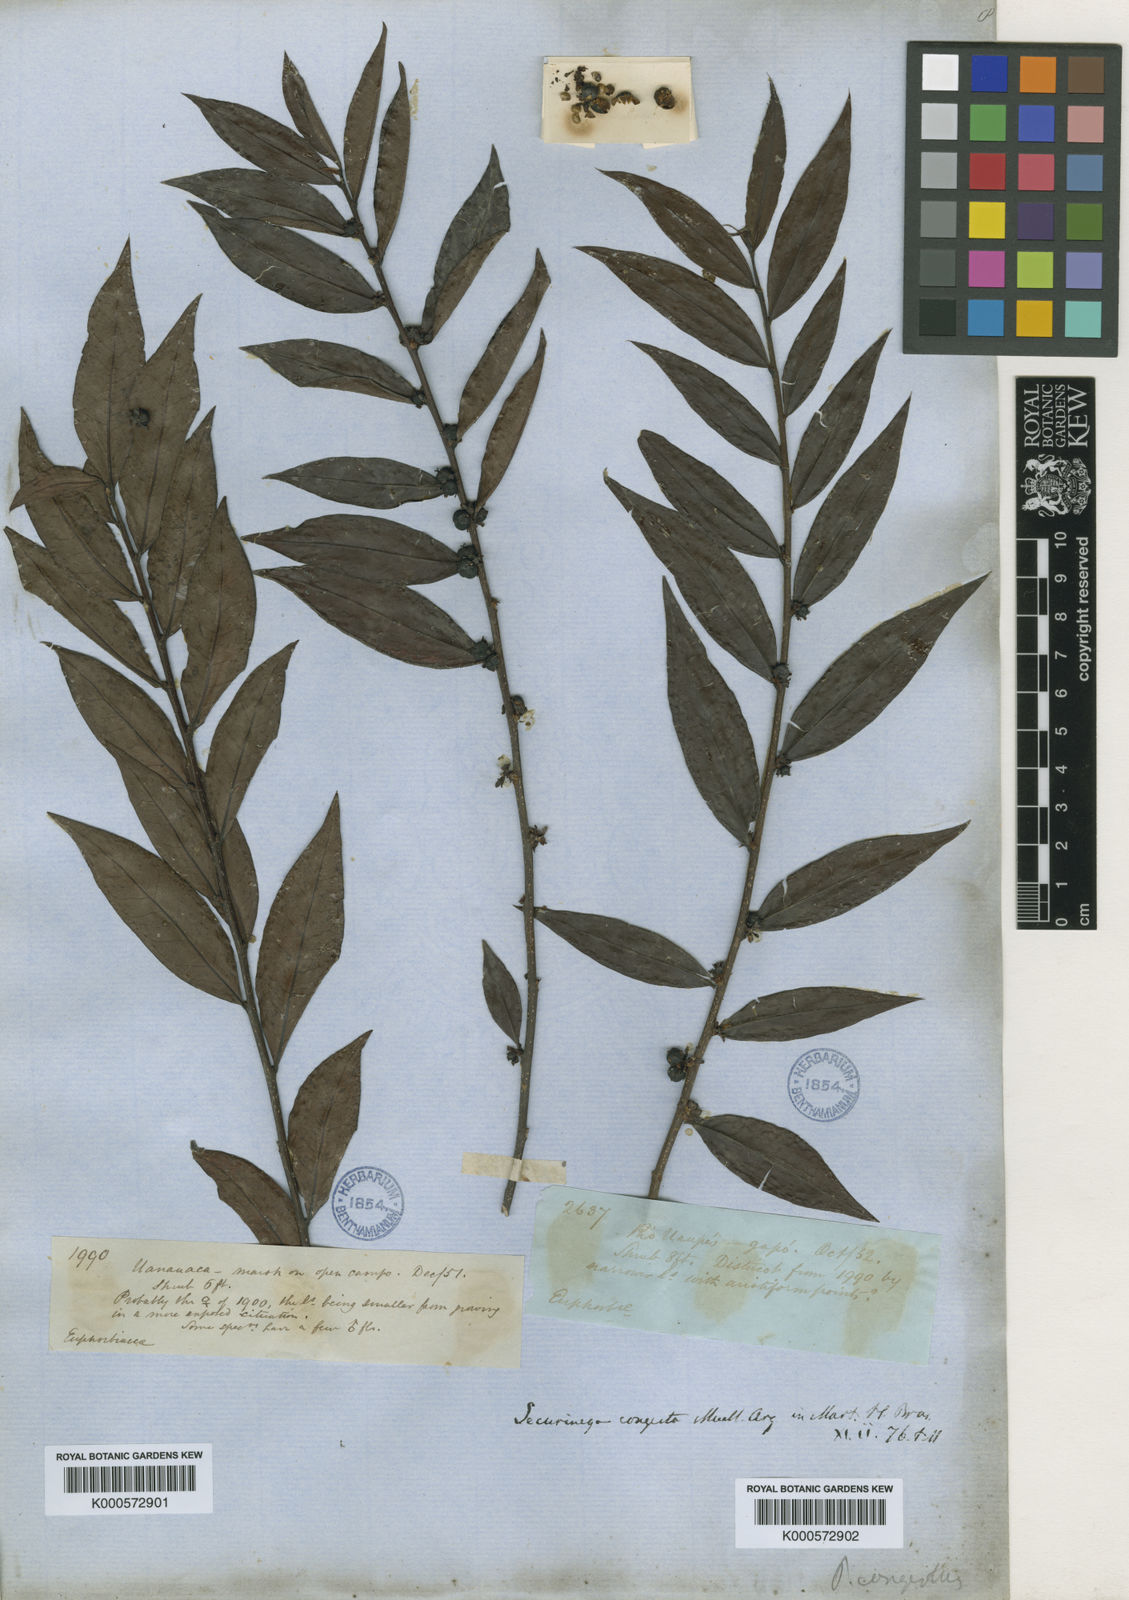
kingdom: Plantae
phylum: Tracheophyta
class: Magnoliopsida
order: Malpighiales
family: Phyllanthaceae
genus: Jablonskia
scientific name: Jablonskia congesta
